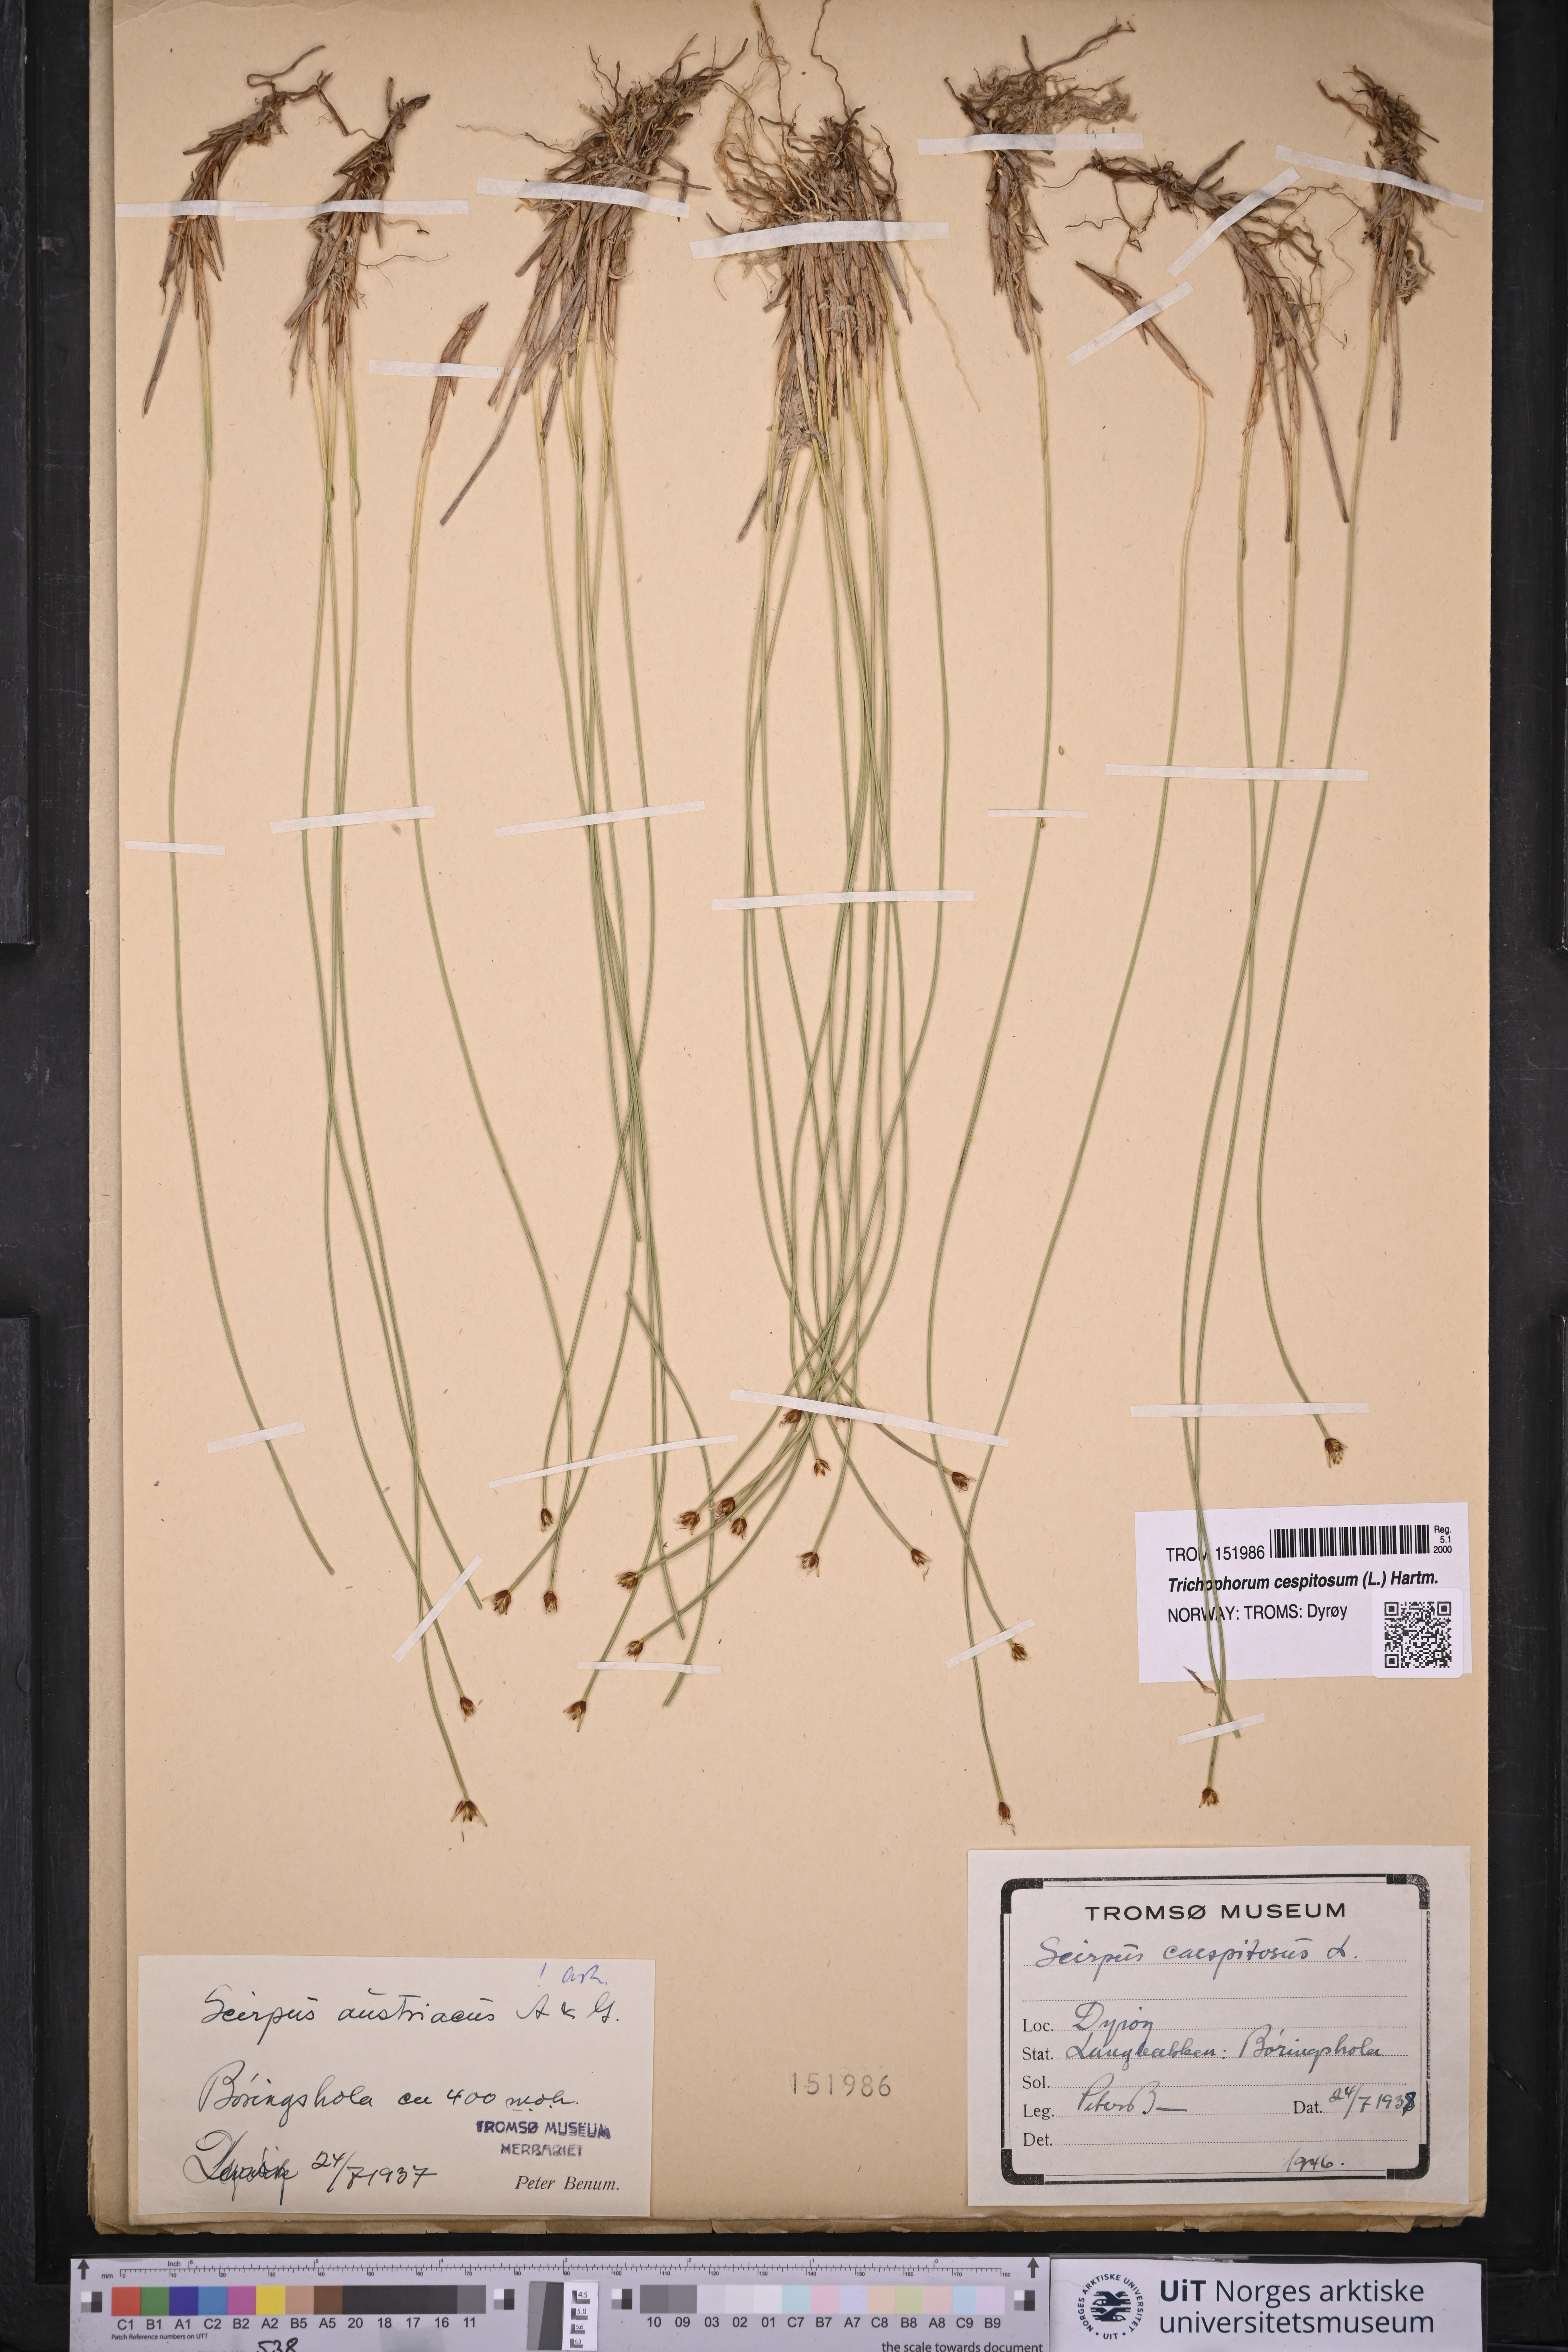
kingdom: Plantae
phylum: Tracheophyta
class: Liliopsida
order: Poales
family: Cyperaceae
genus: Trichophorum
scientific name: Trichophorum cespitosum
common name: Cespitose bulrush
